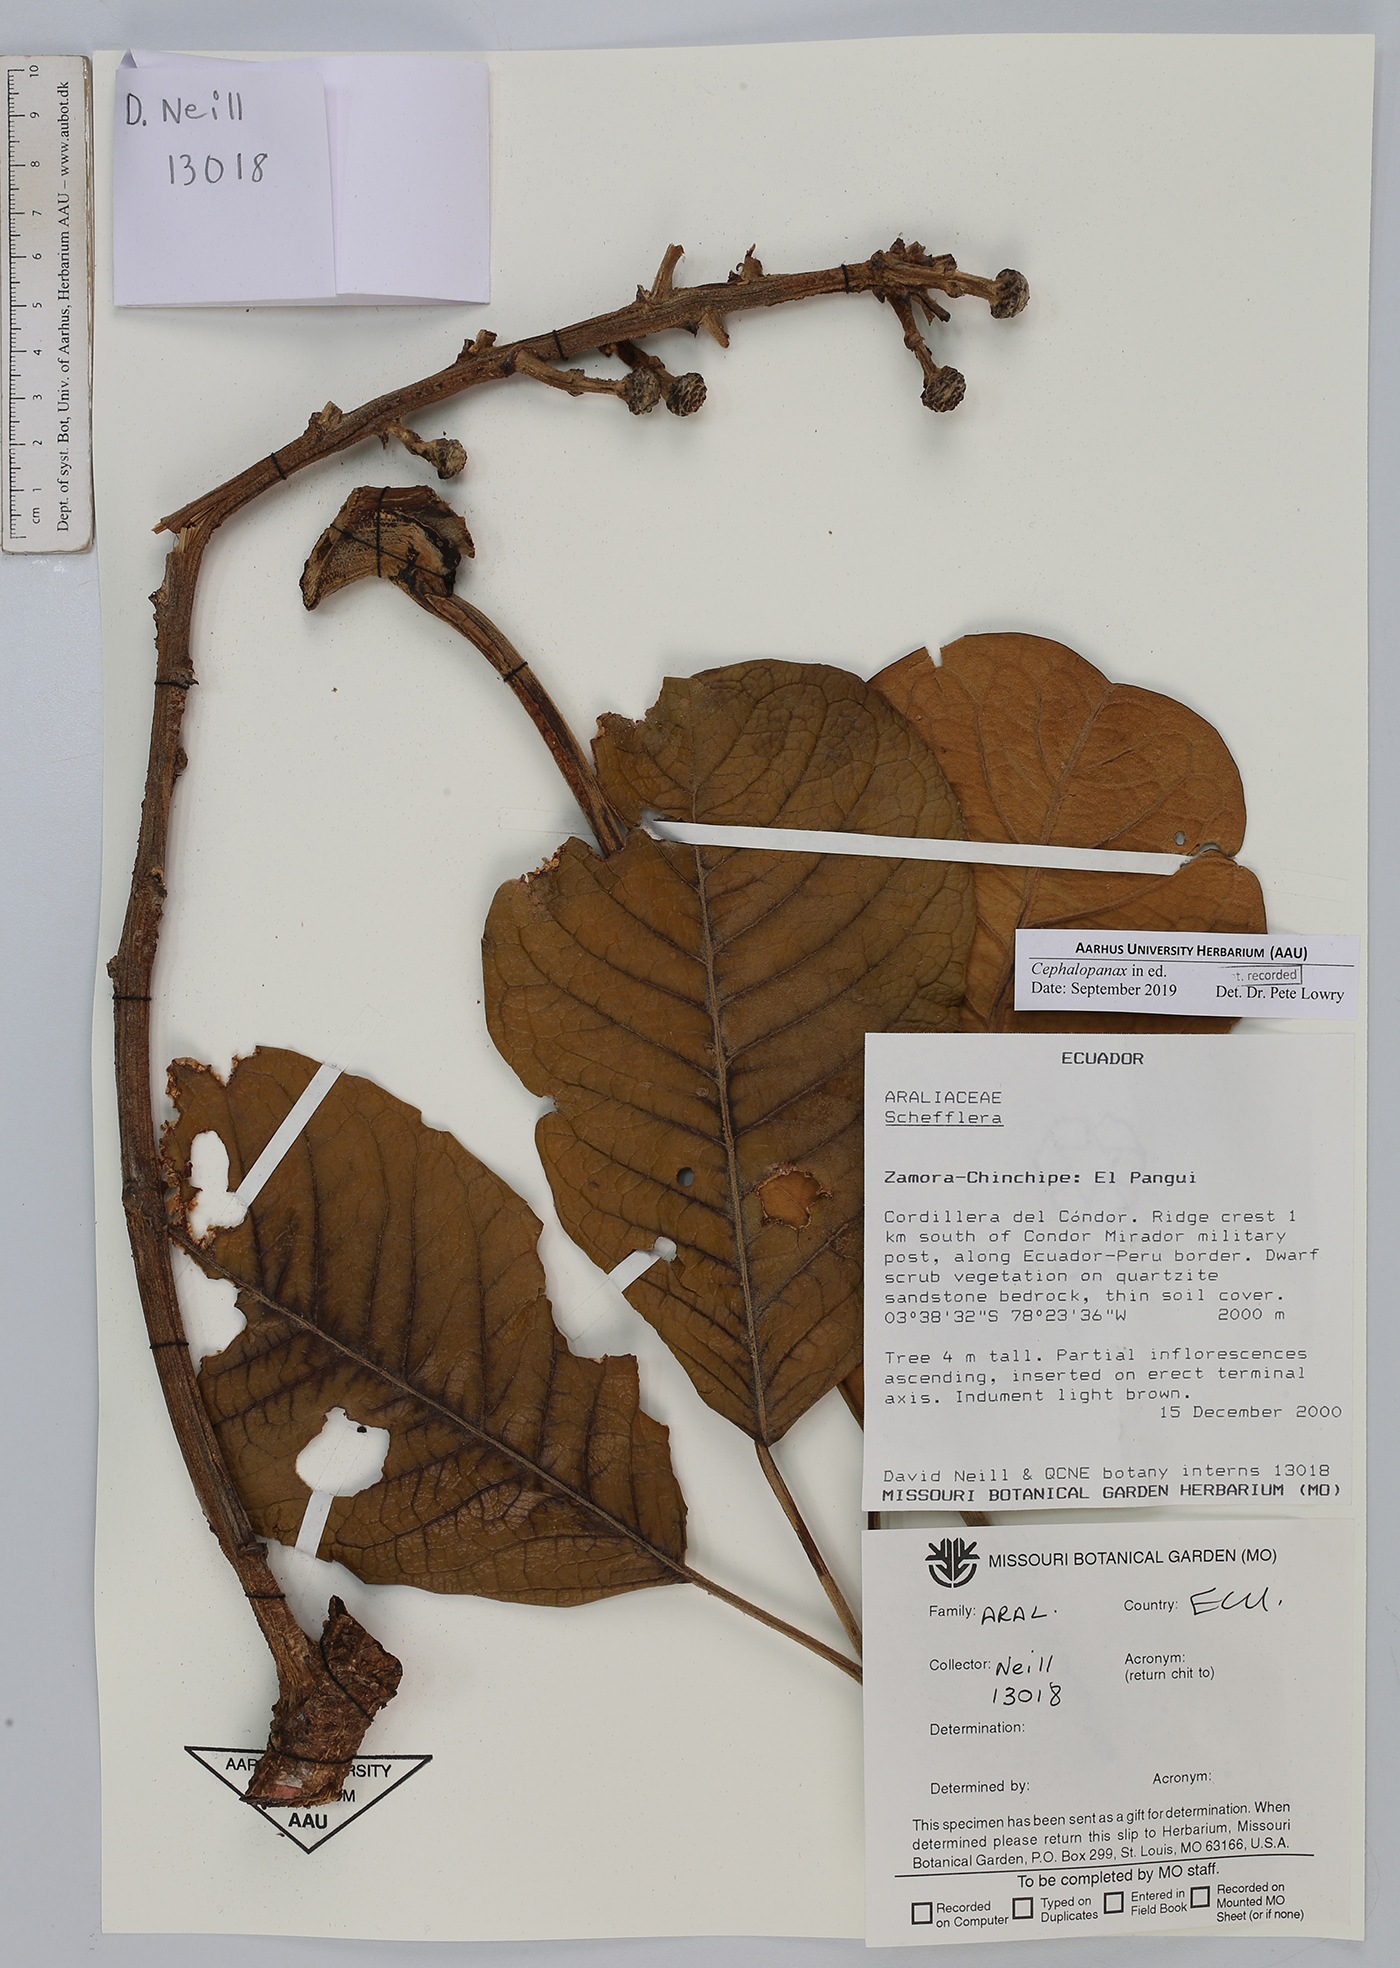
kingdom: Plantae
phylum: Tracheophyta
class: Magnoliopsida
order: Apiales
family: Araliaceae
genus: Cephalopanax
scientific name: Cephalopanax
